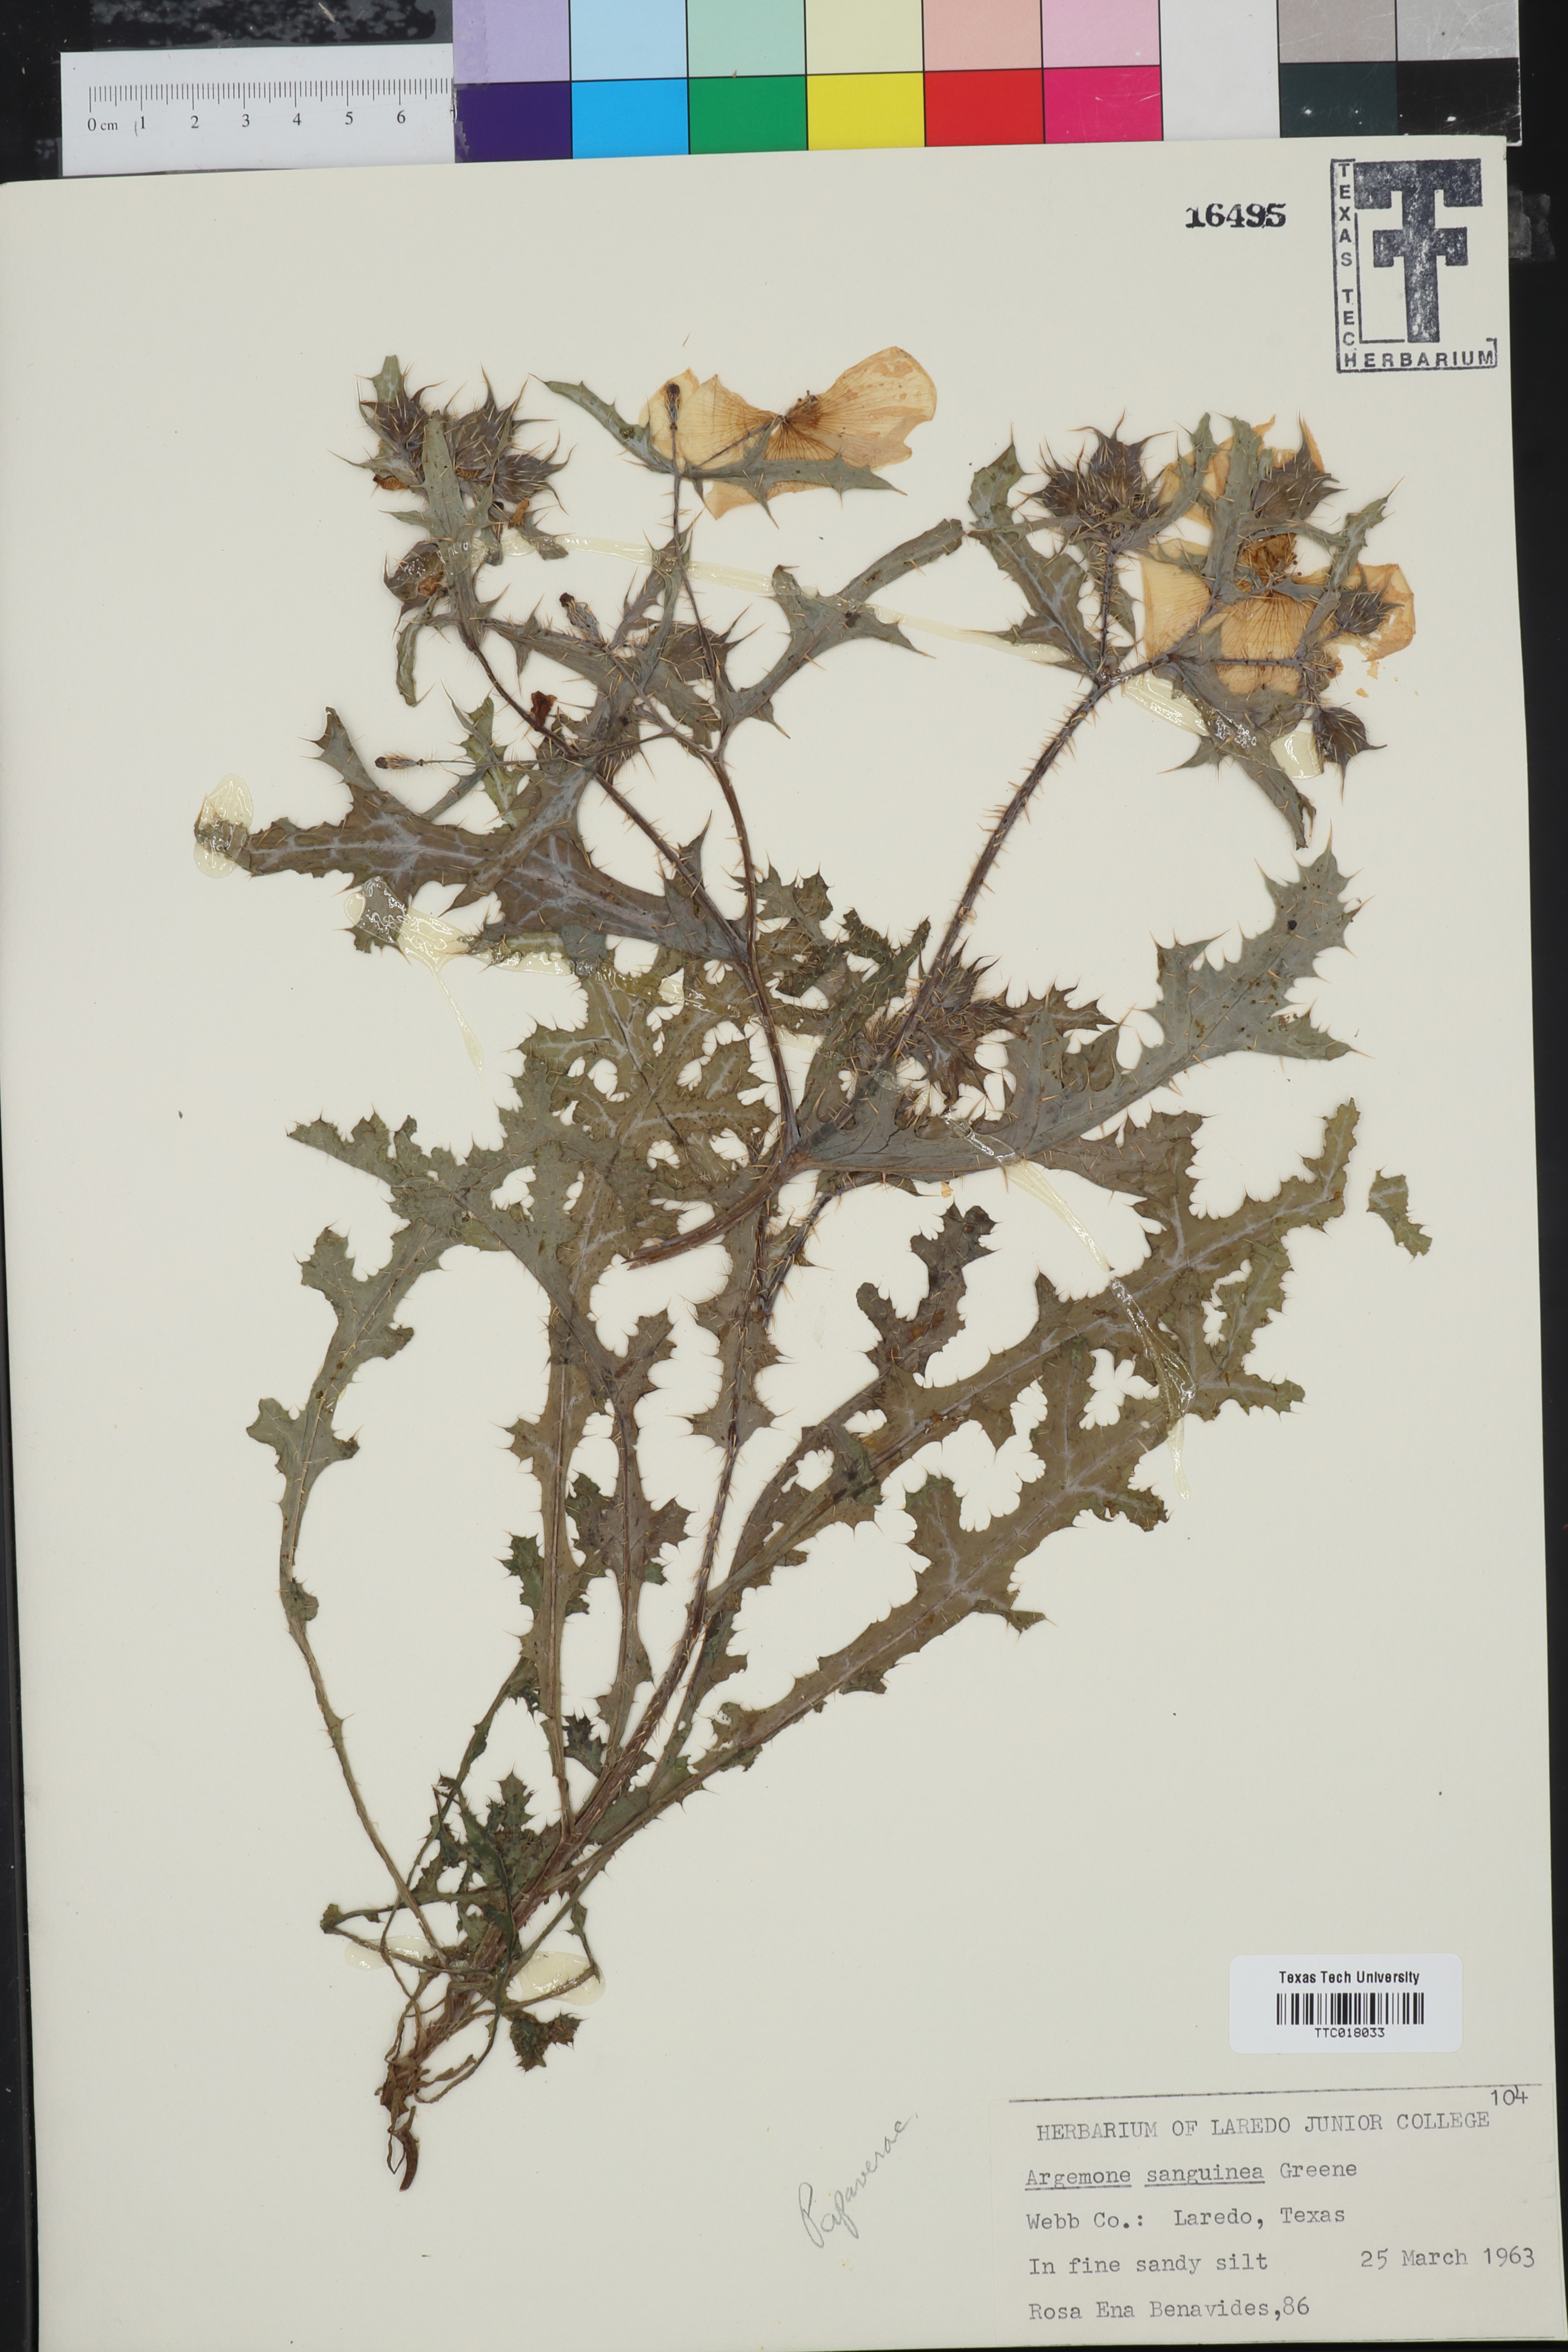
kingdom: Plantae
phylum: Tracheophyta
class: Magnoliopsida
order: Ranunculales
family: Papaveraceae
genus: Argemone
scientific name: Argemone sanguinea
